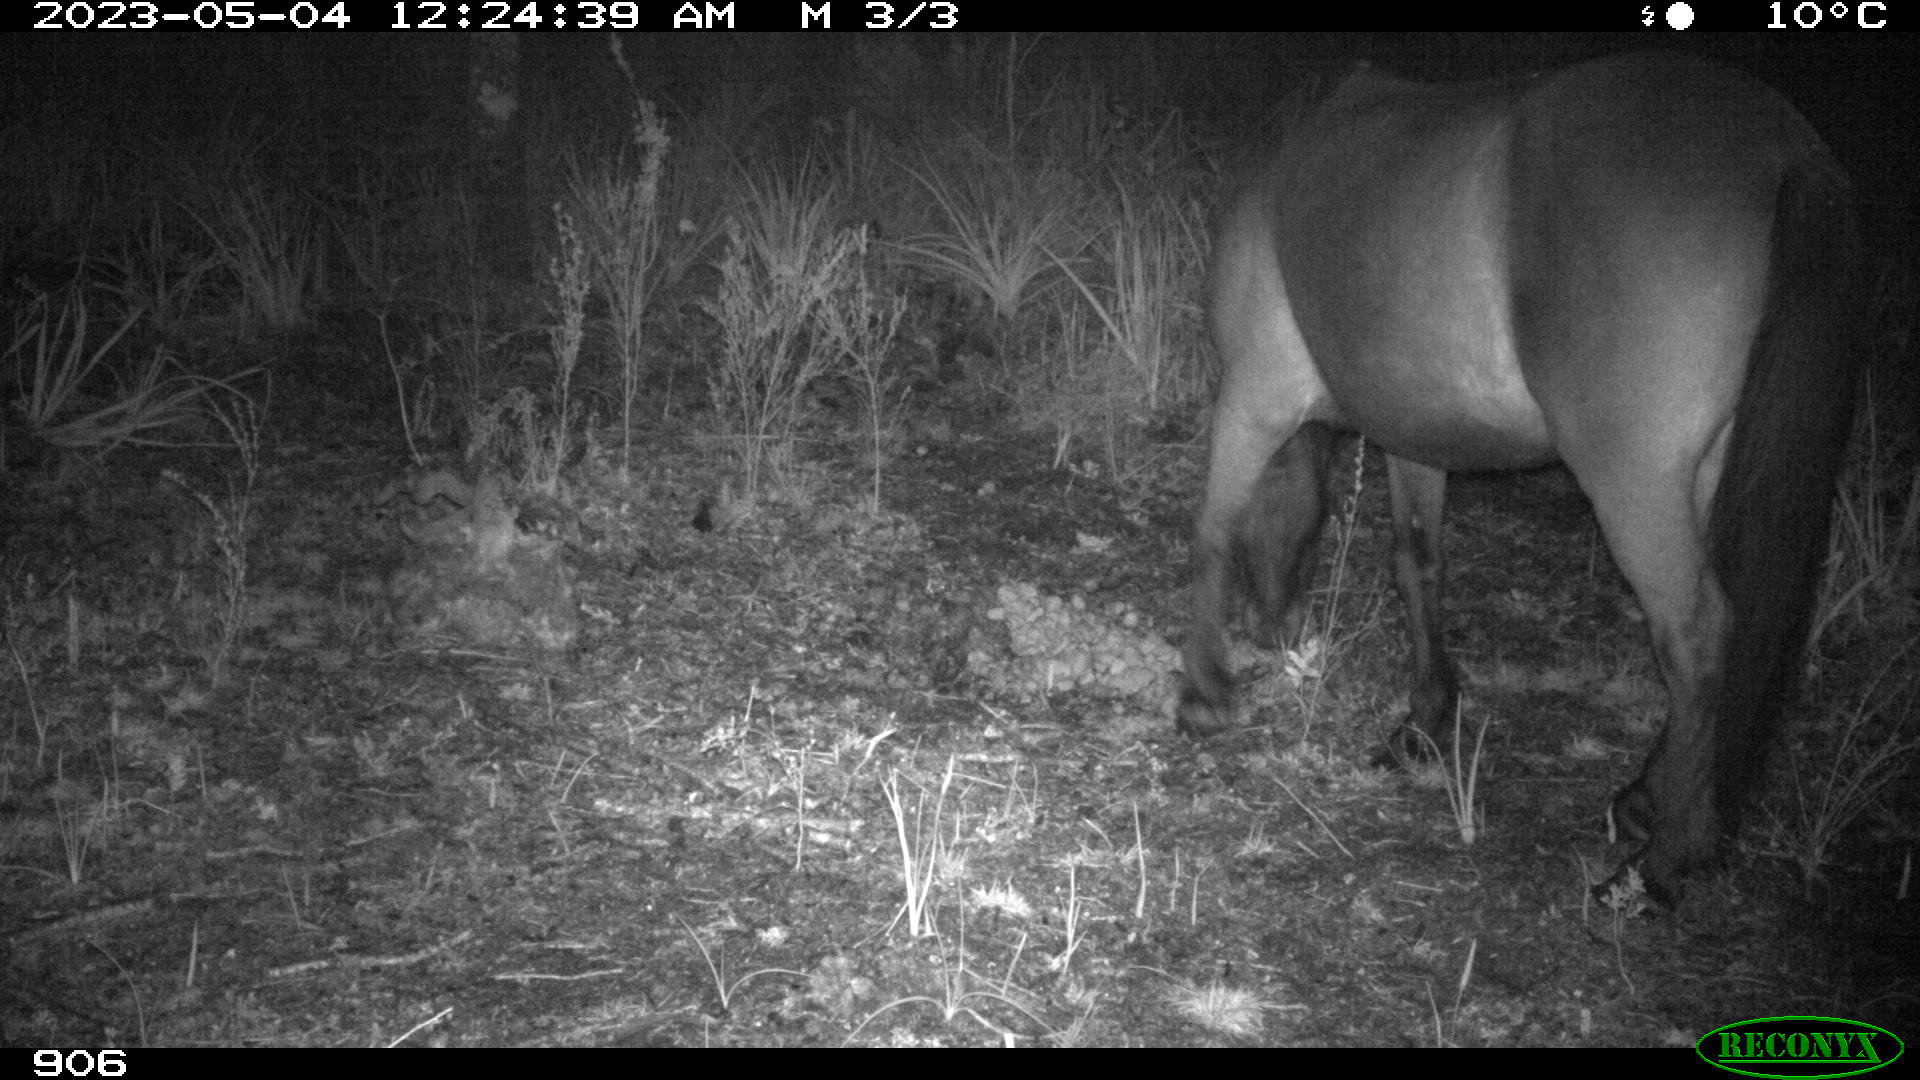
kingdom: Animalia
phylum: Chordata
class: Mammalia
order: Perissodactyla
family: Equidae
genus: Equus
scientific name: Equus caballus
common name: Horse
